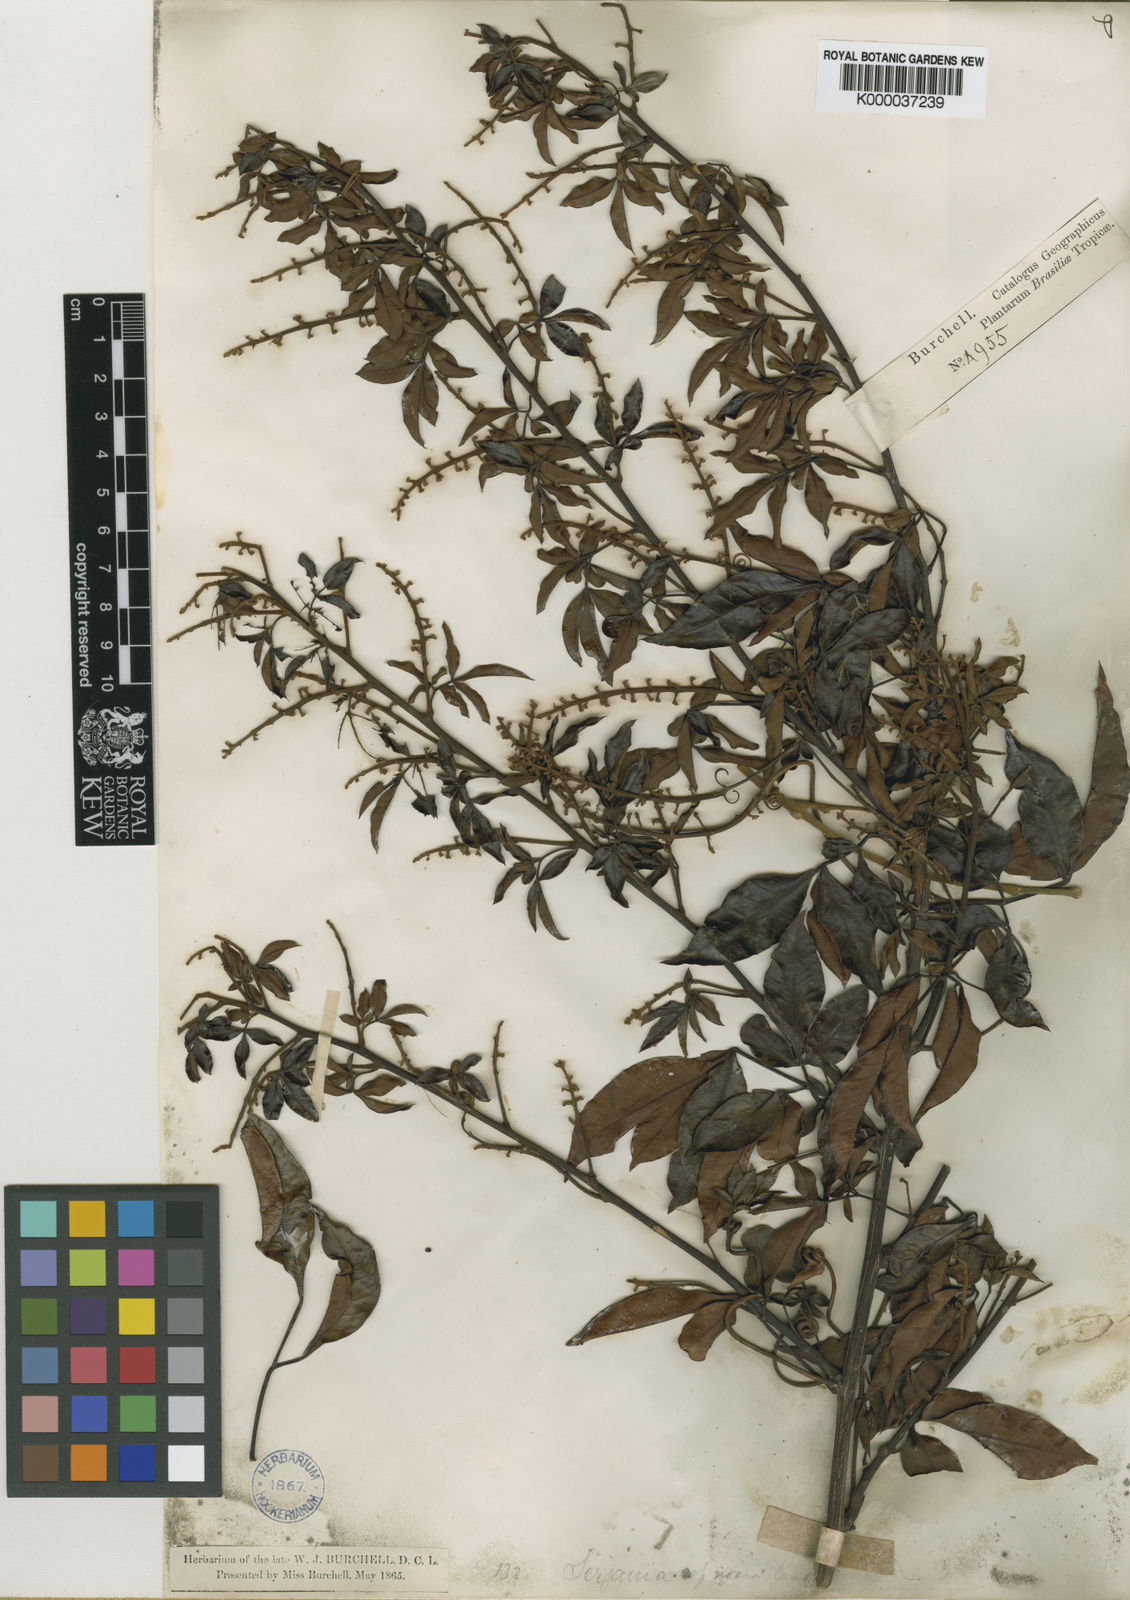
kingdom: Plantae
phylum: Tracheophyta
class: Magnoliopsida
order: Sapindales
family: Sapindaceae
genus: Serjania
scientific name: Serjania noxia
